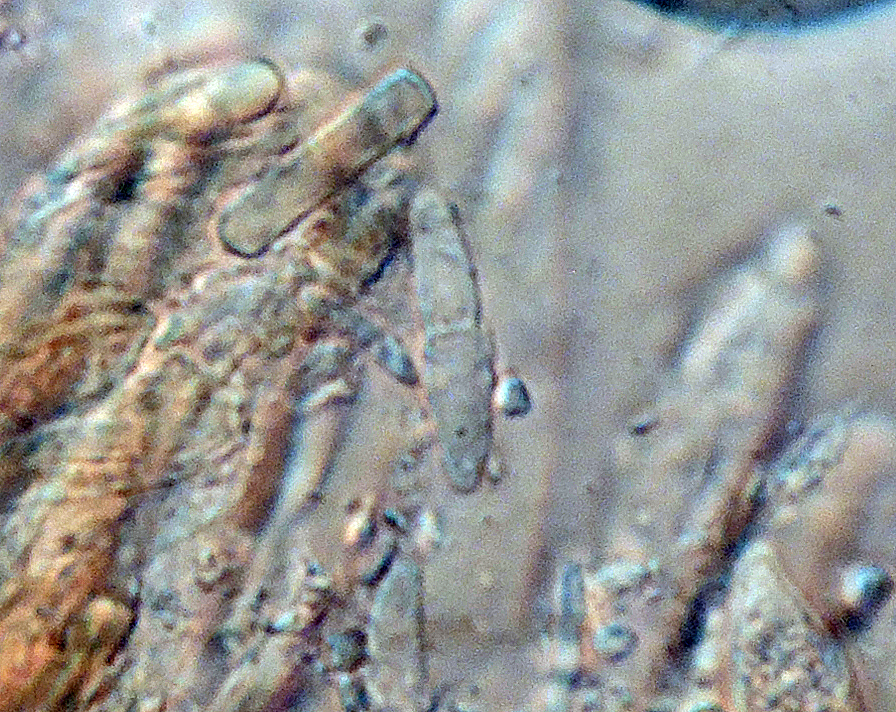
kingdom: Fungi
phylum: Ascomycota
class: Leotiomycetes
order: Helotiales
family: Pezizellaceae
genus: Calycina
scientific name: Calycina heterospora
